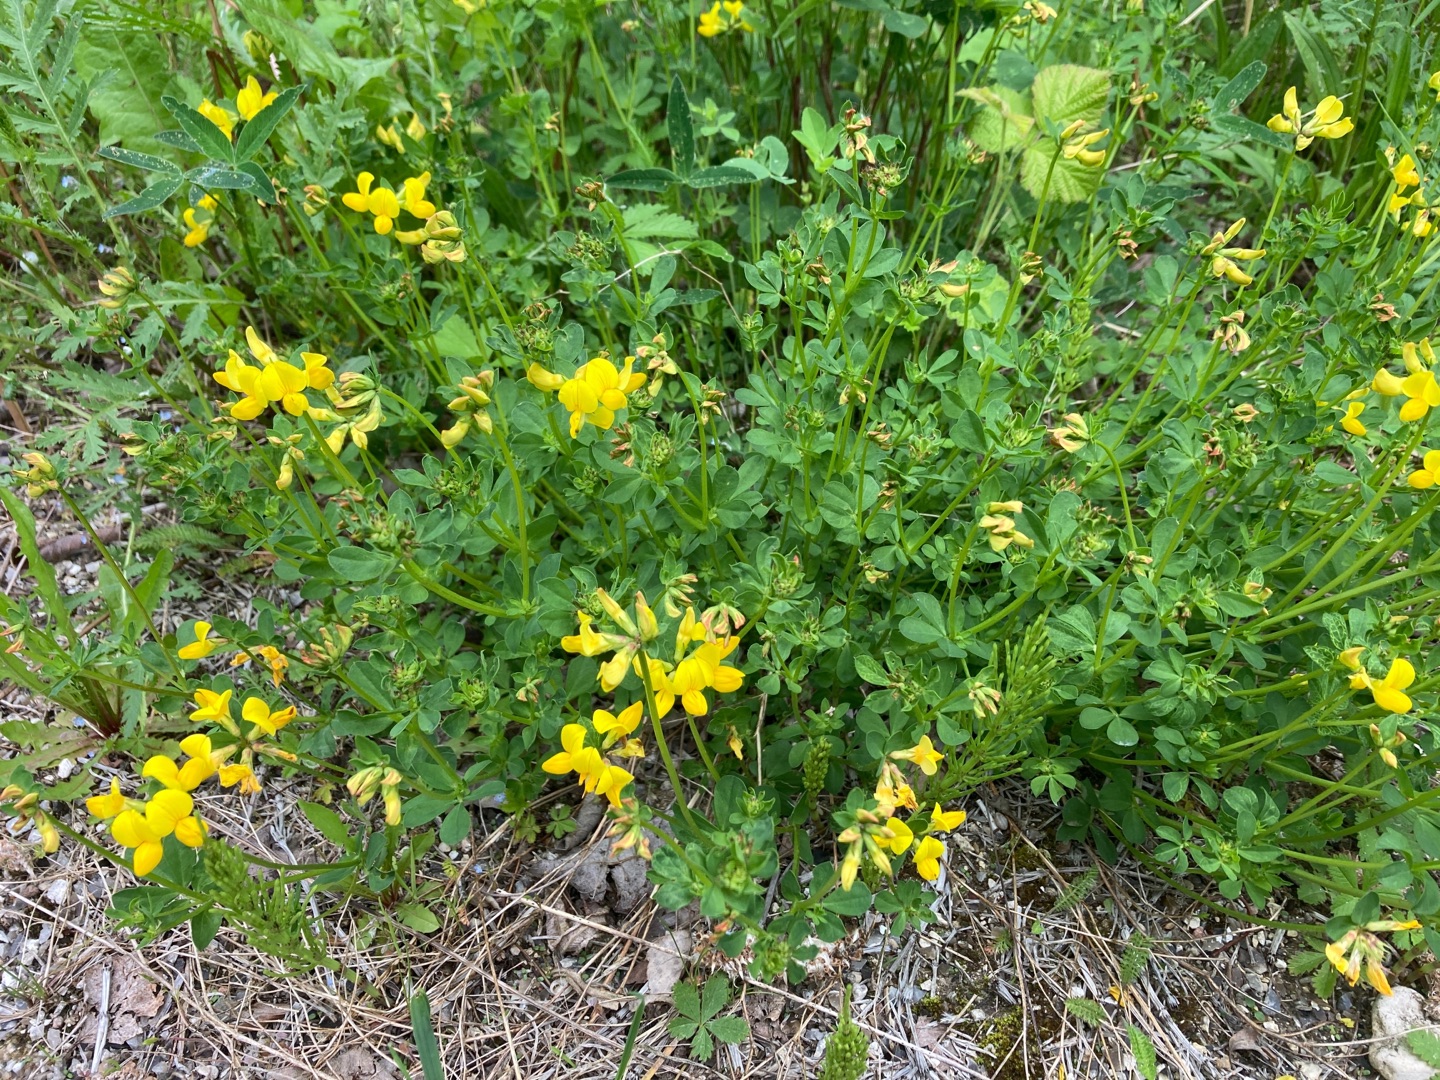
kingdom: Plantae
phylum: Tracheophyta
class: Magnoliopsida
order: Fabales
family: Fabaceae
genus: Lotus
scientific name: Lotus corniculatus
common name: Almindelig kællingetand
